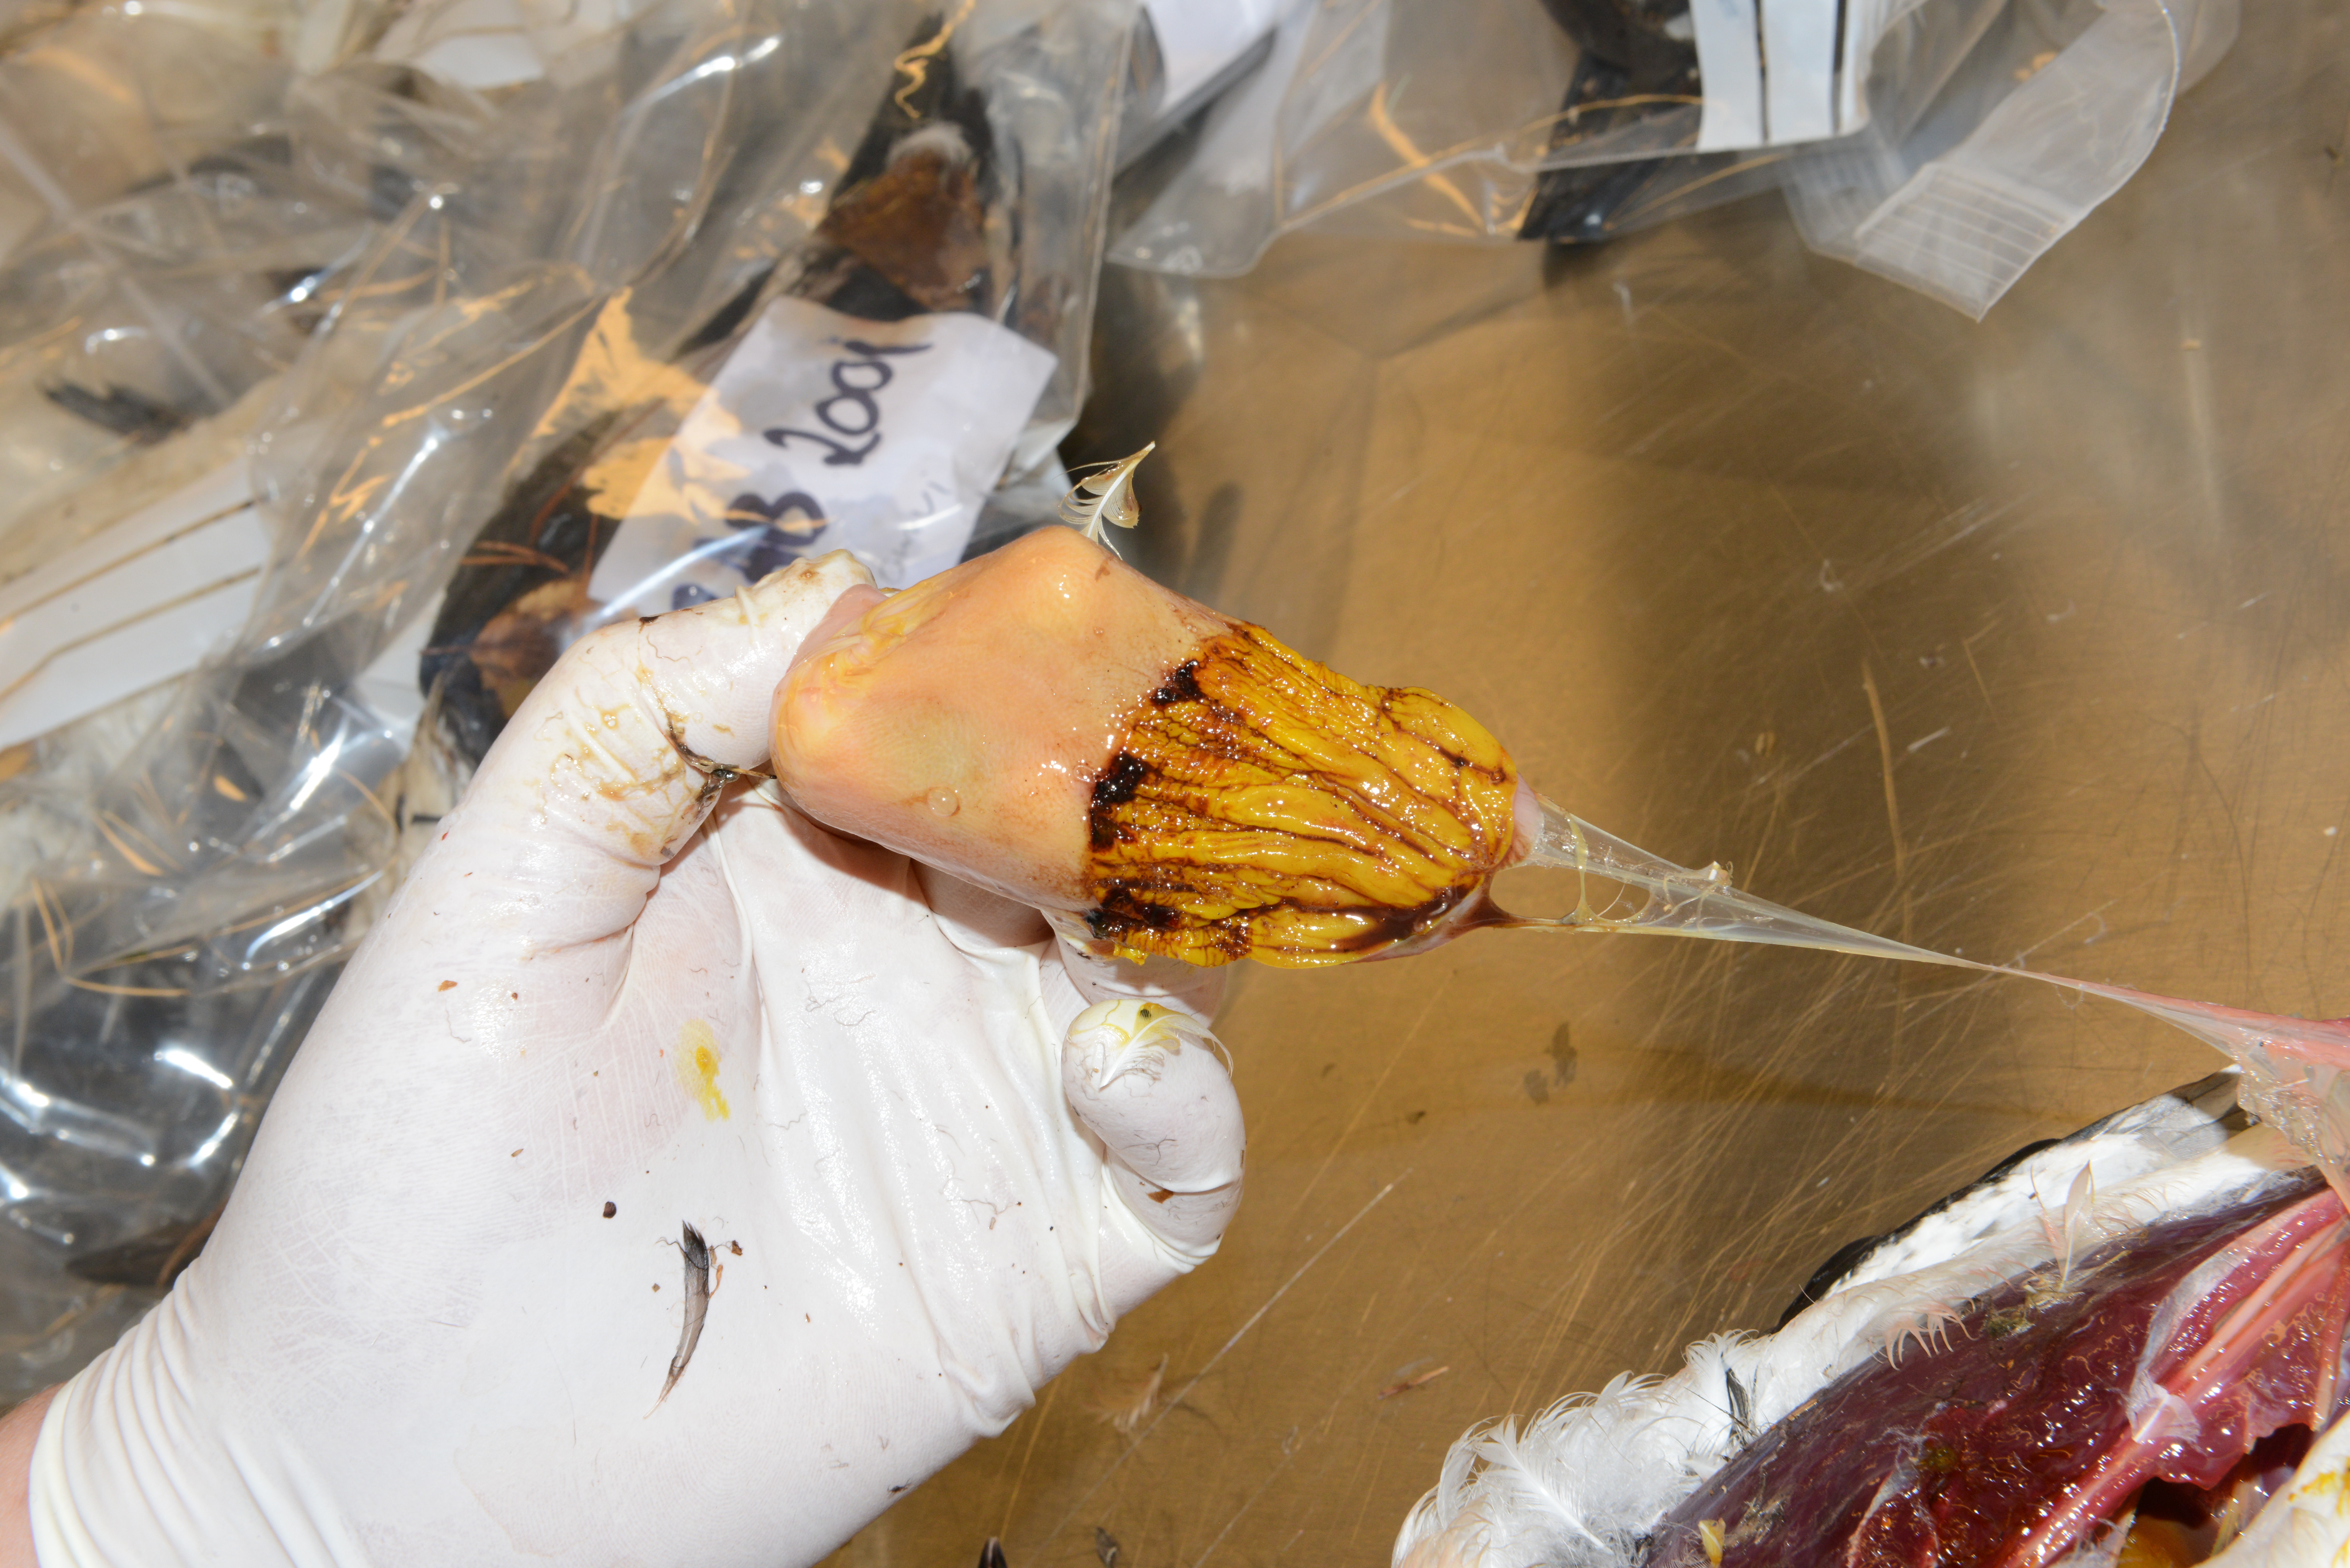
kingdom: Animalia
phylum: Chordata
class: Aves
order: Charadriiformes
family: Alcidae
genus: Uria
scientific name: Uria aalge
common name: Common murre
